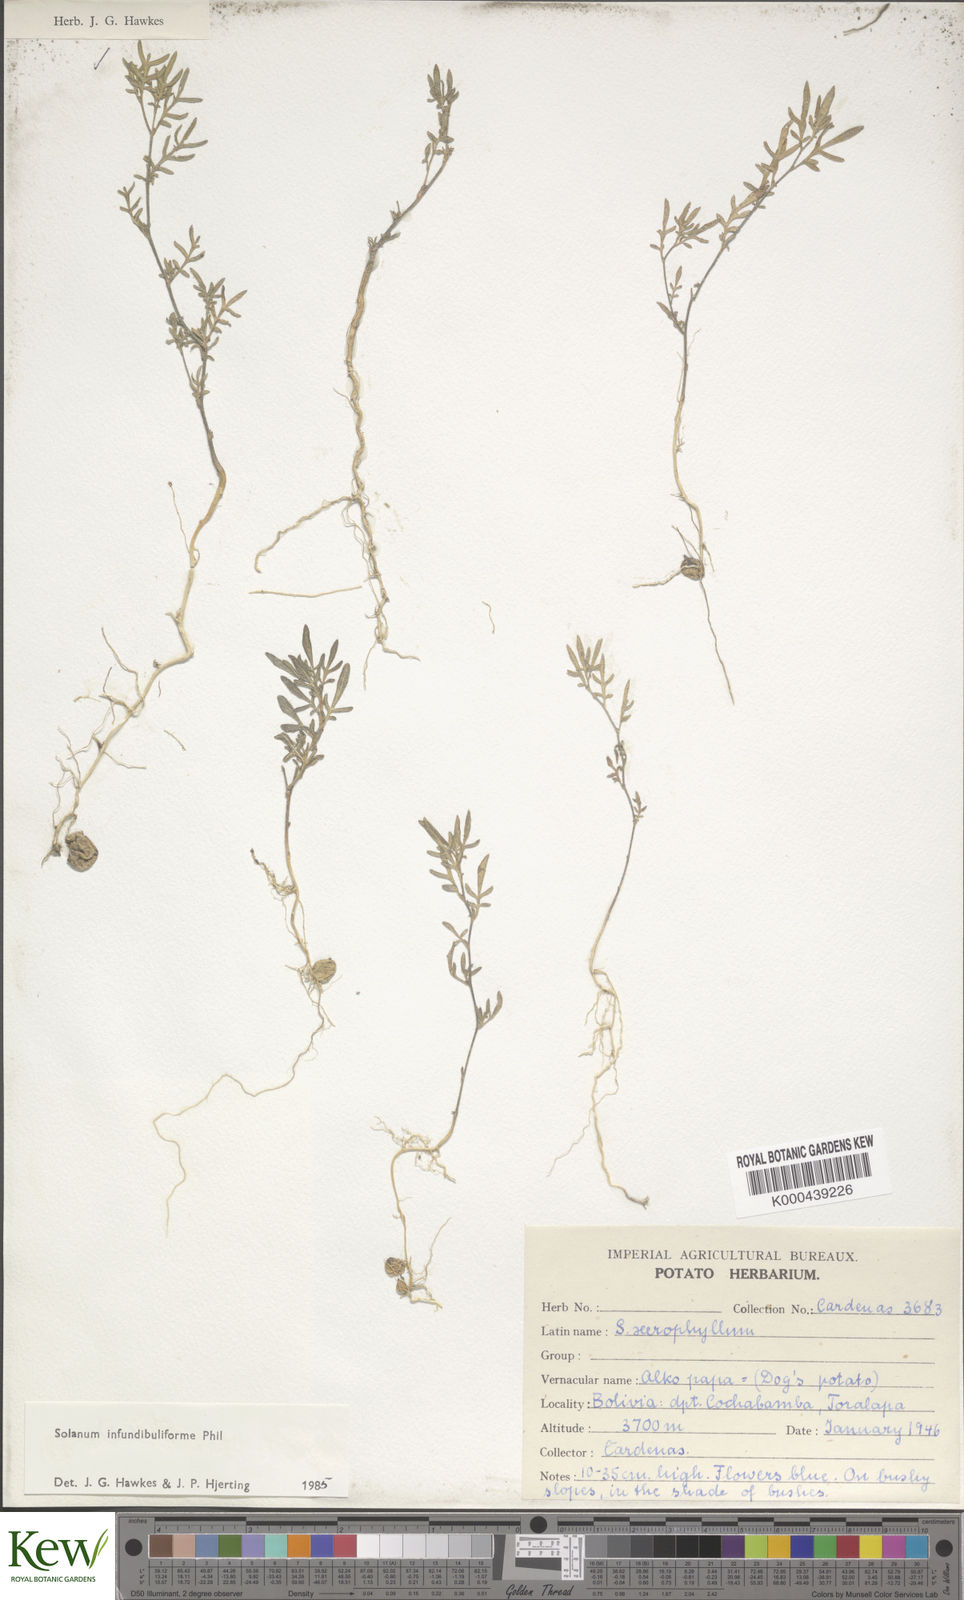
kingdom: Plantae
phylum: Tracheophyta
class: Magnoliopsida
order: Solanales
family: Solanaceae
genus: Solanum
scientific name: Solanum infundibuliforme
